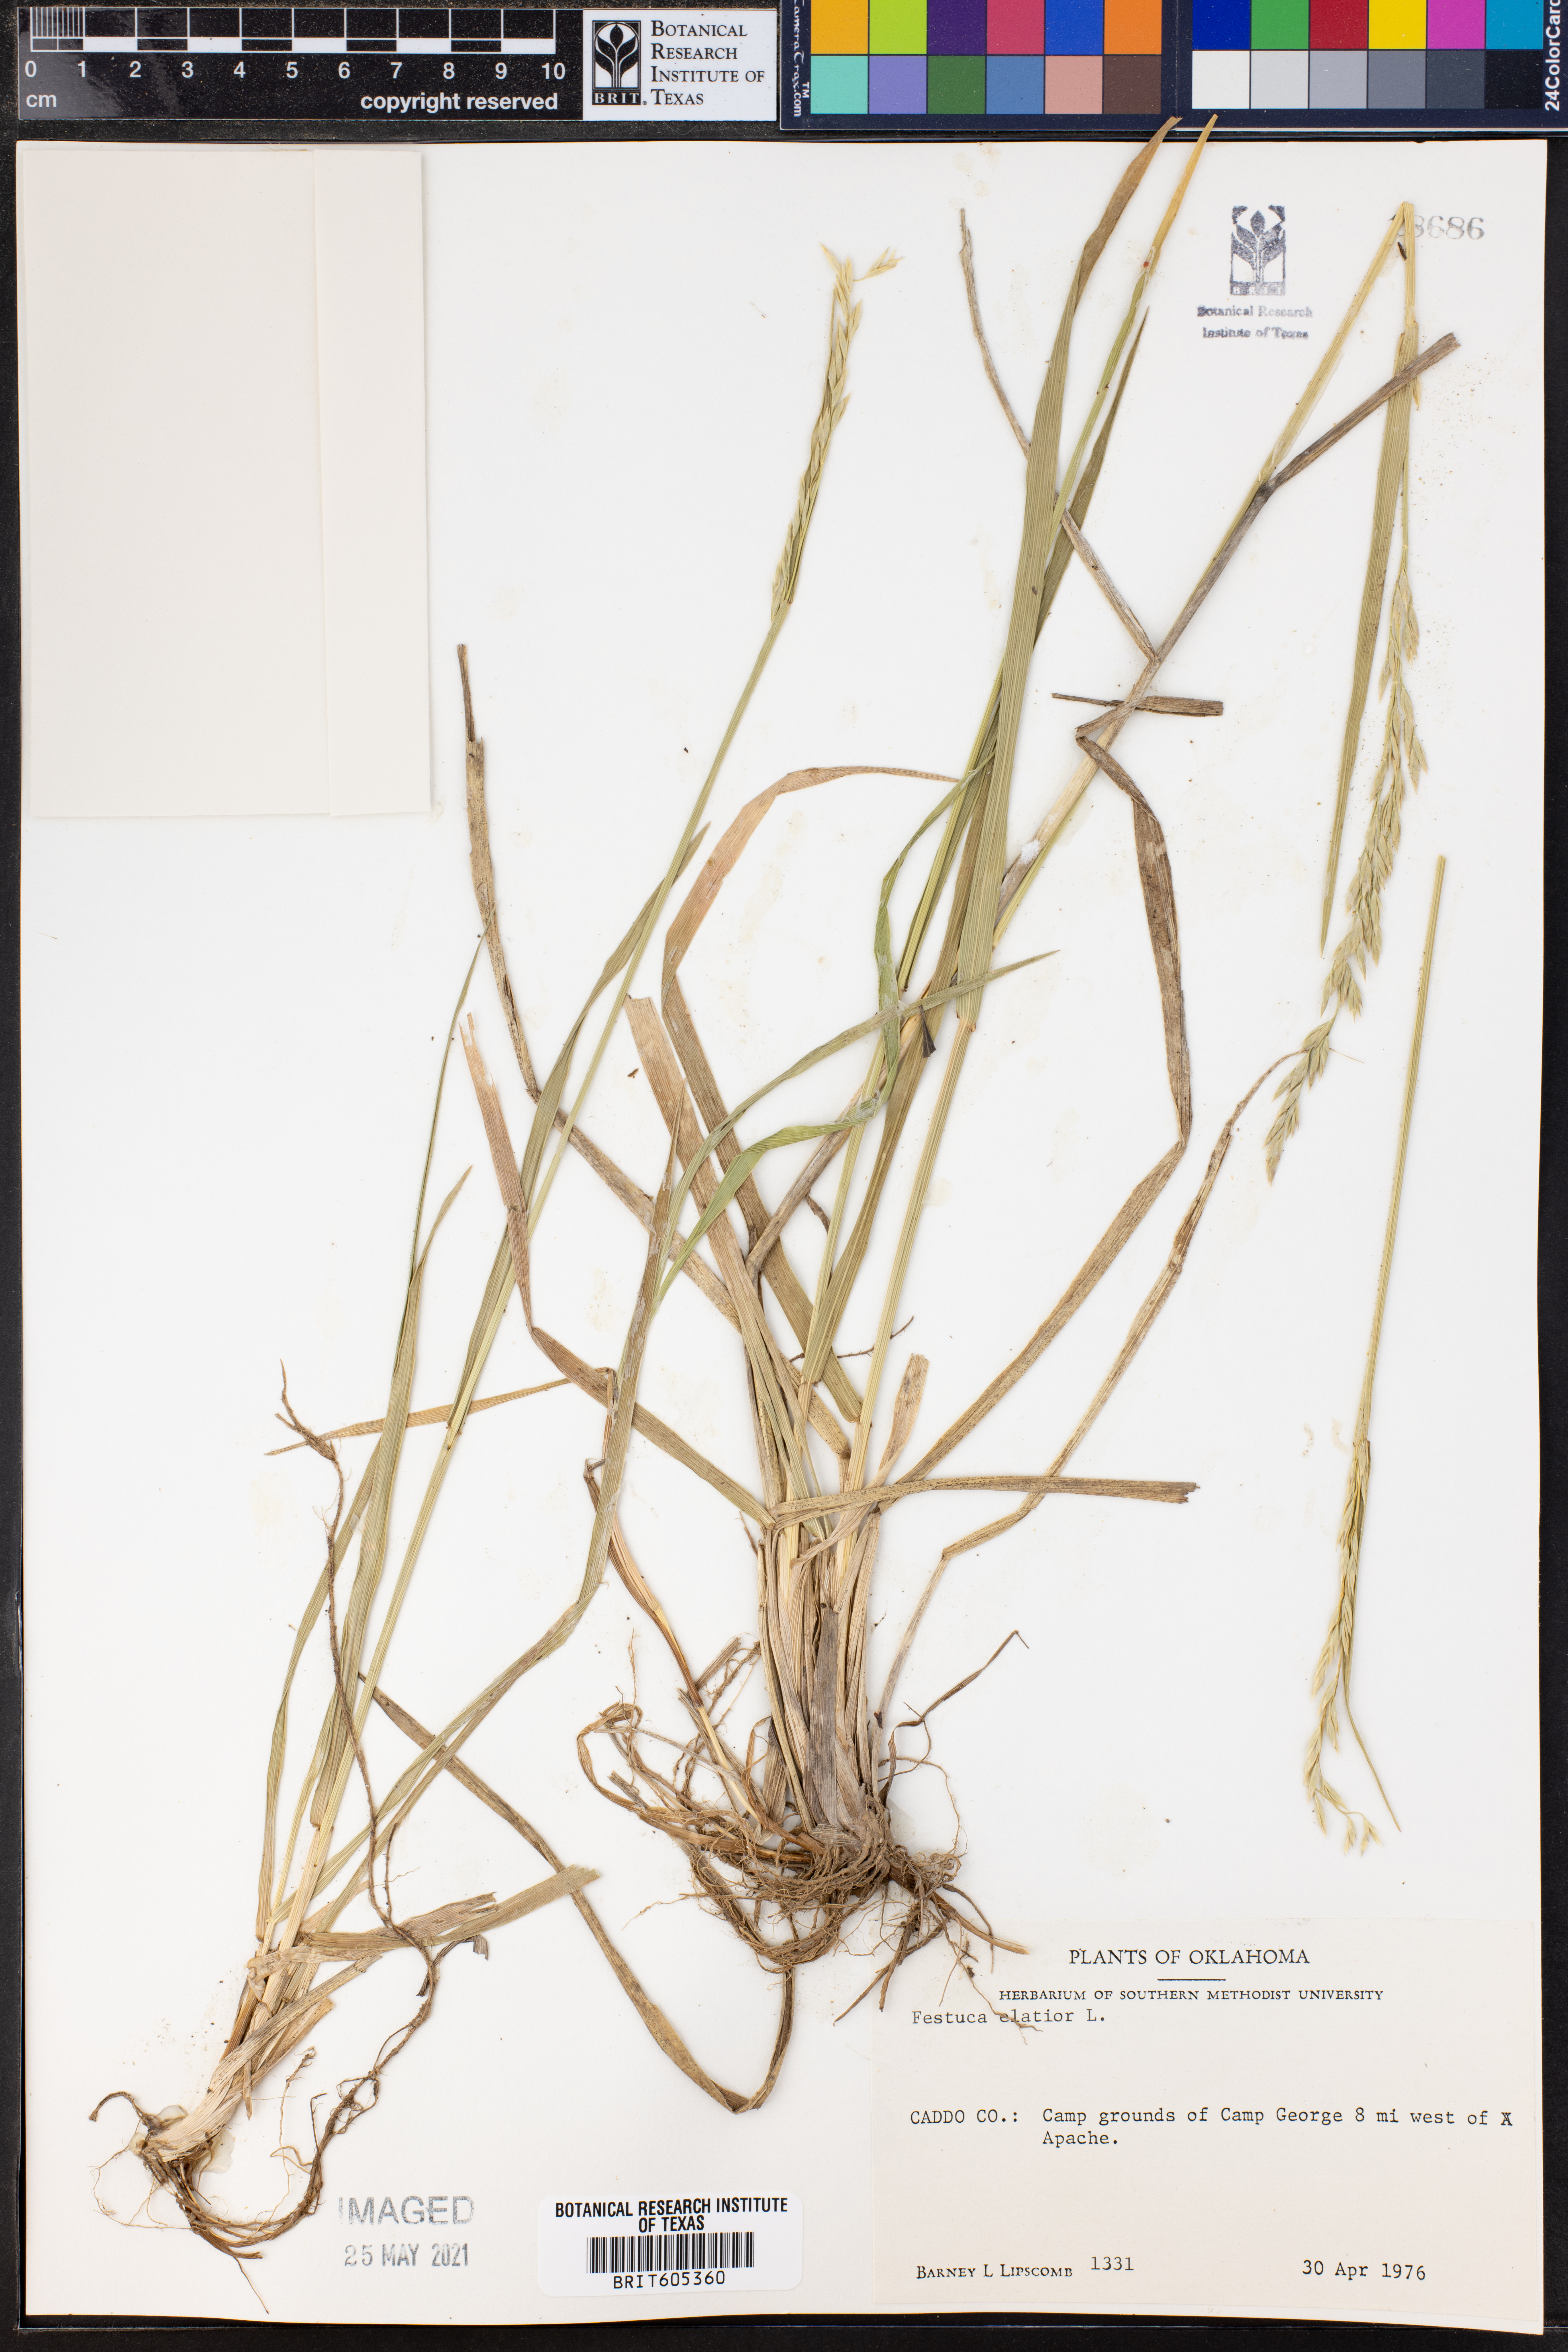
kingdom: Plantae
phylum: Tracheophyta
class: Liliopsida
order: Poales
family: Poaceae
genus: Lolium
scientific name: Lolium arundinaceum
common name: Reed fescue
